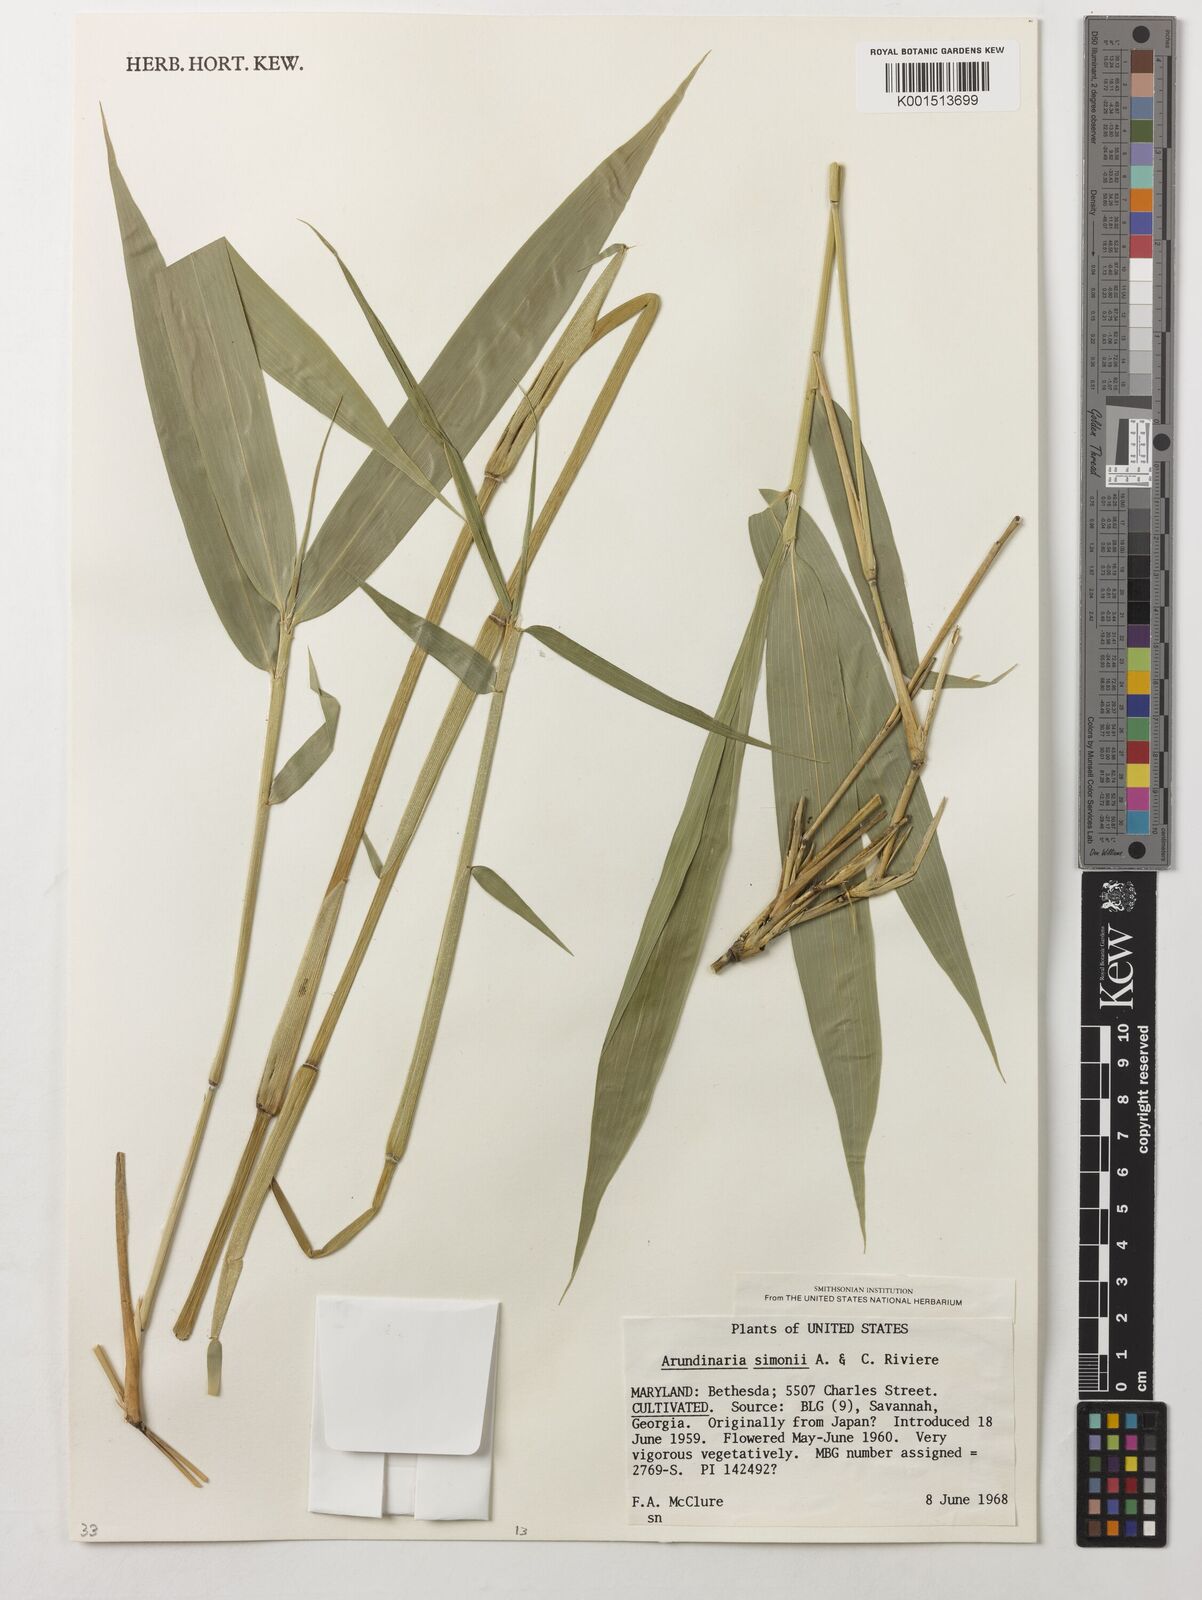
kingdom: Plantae
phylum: Tracheophyta
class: Liliopsida
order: Poales
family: Poaceae
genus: Pleioblastus
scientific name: Pleioblastus simonii
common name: Simon bamboo
